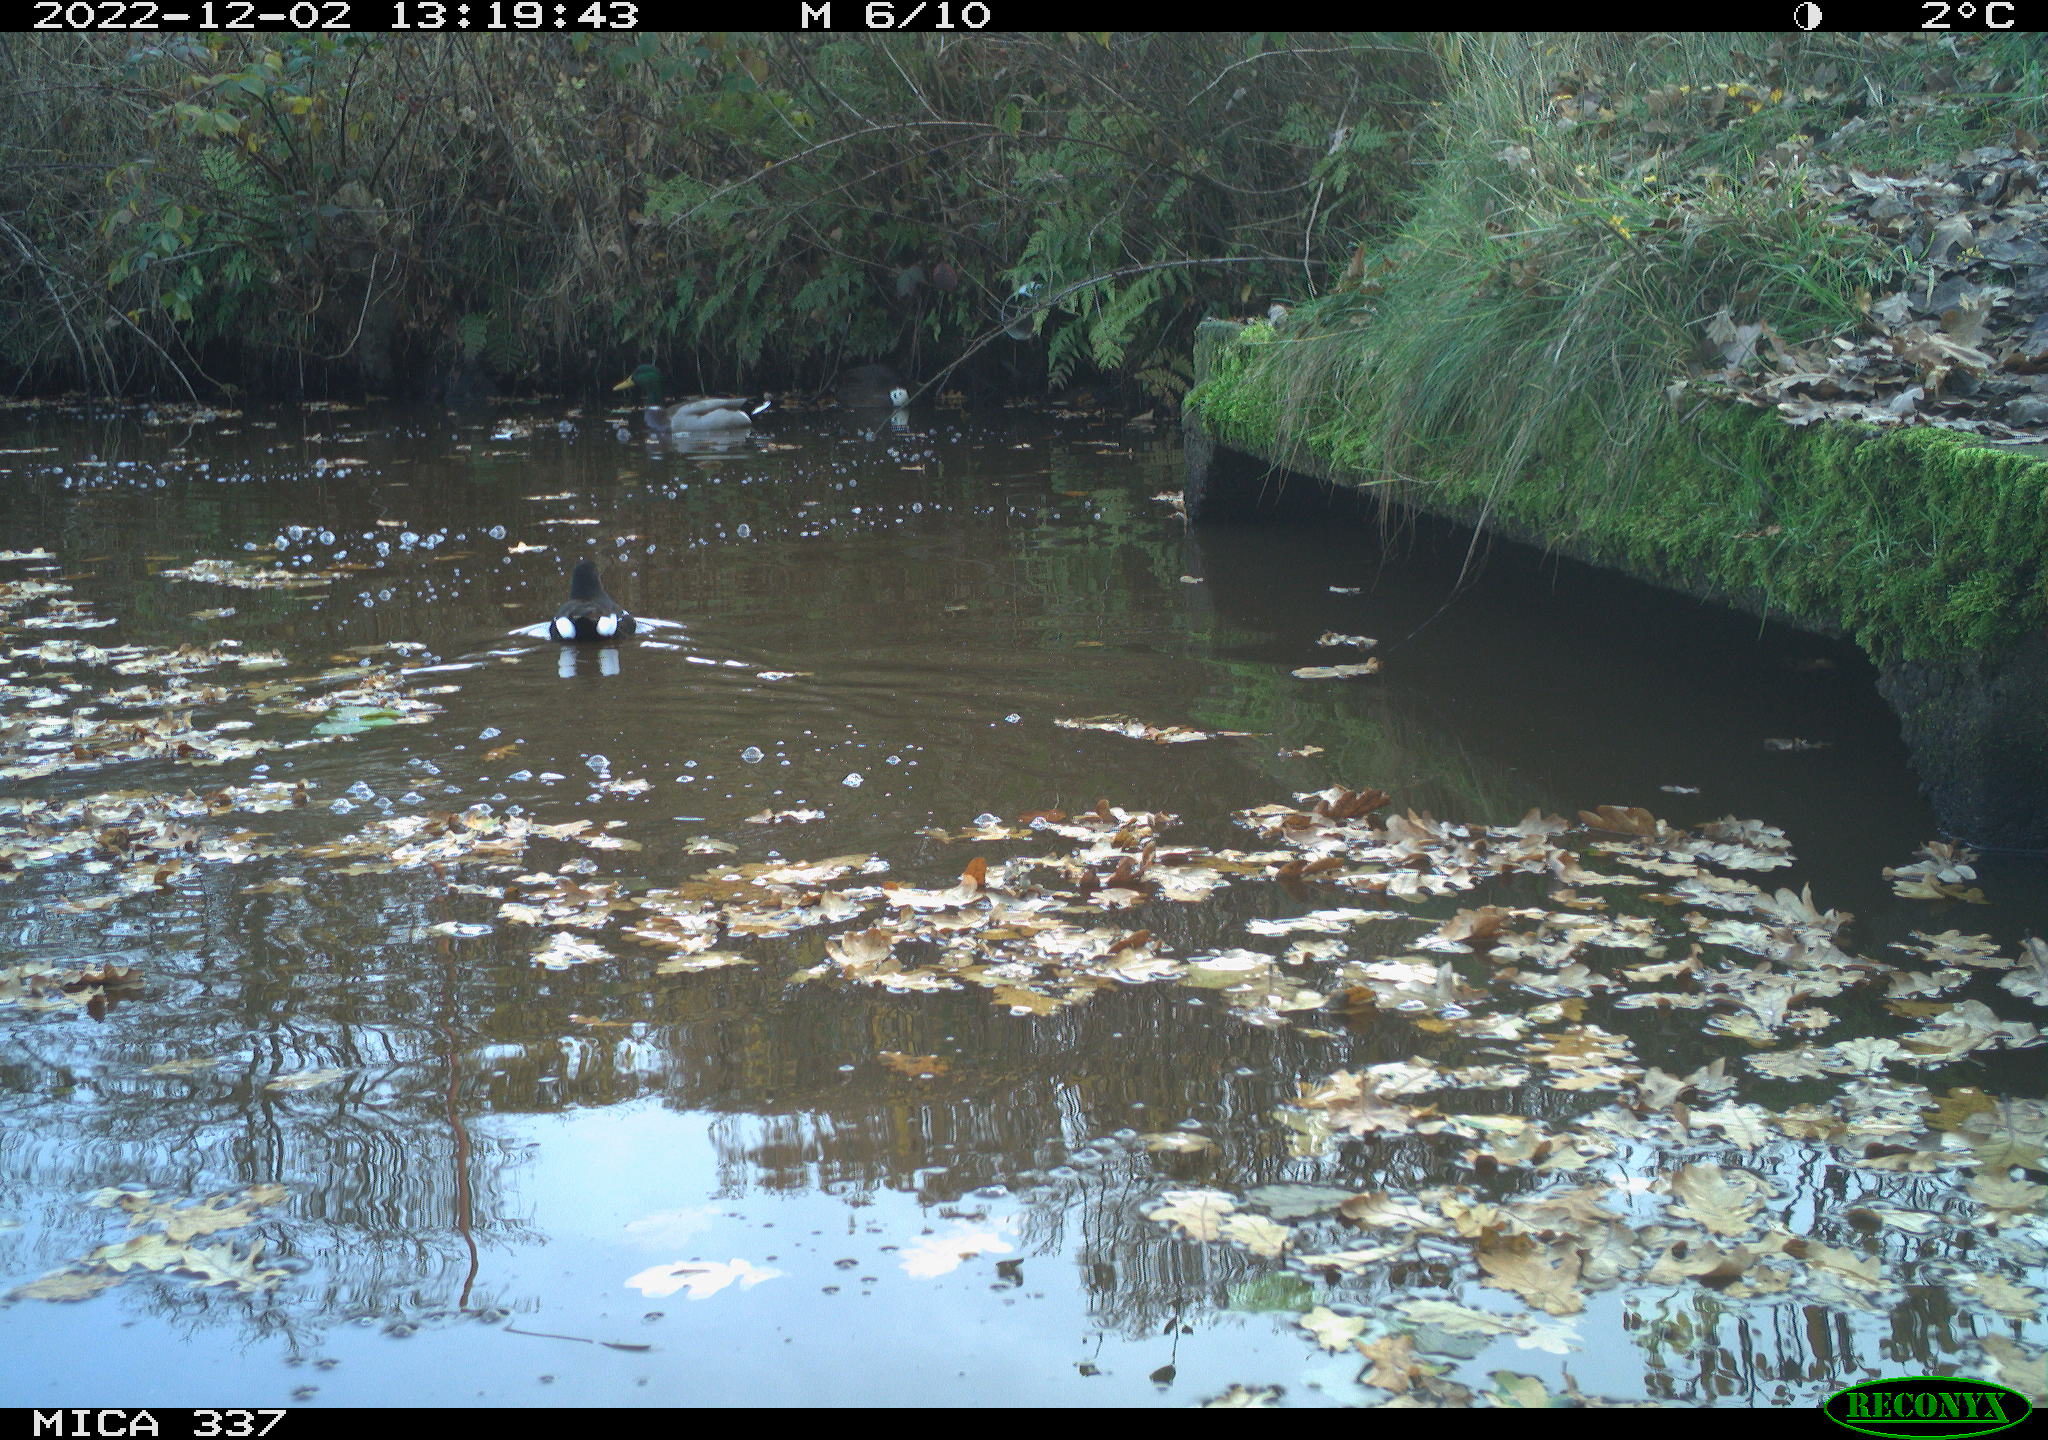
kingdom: Animalia
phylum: Chordata
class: Aves
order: Anseriformes
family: Anatidae
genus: Anas
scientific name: Anas platyrhynchos
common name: Mallard
